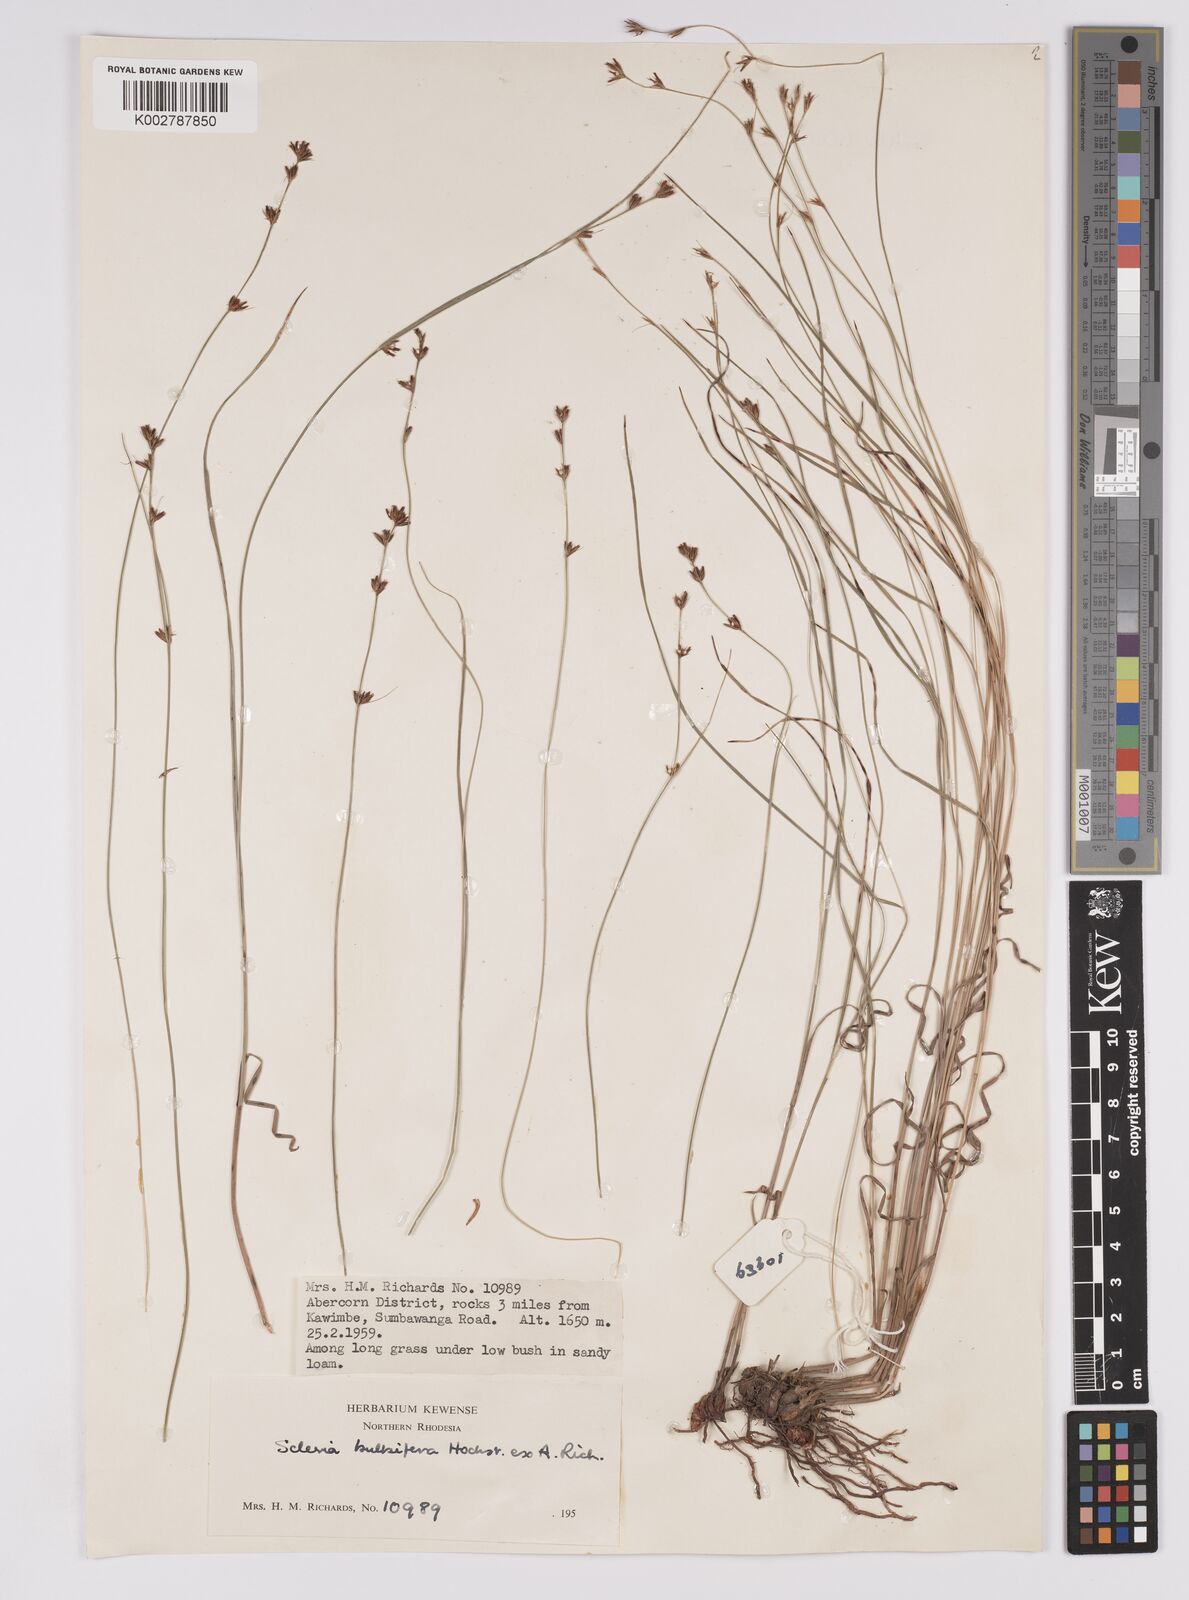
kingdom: Plantae
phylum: Tracheophyta
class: Liliopsida
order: Poales
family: Cyperaceae
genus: Scleria
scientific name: Scleria bulbifera
